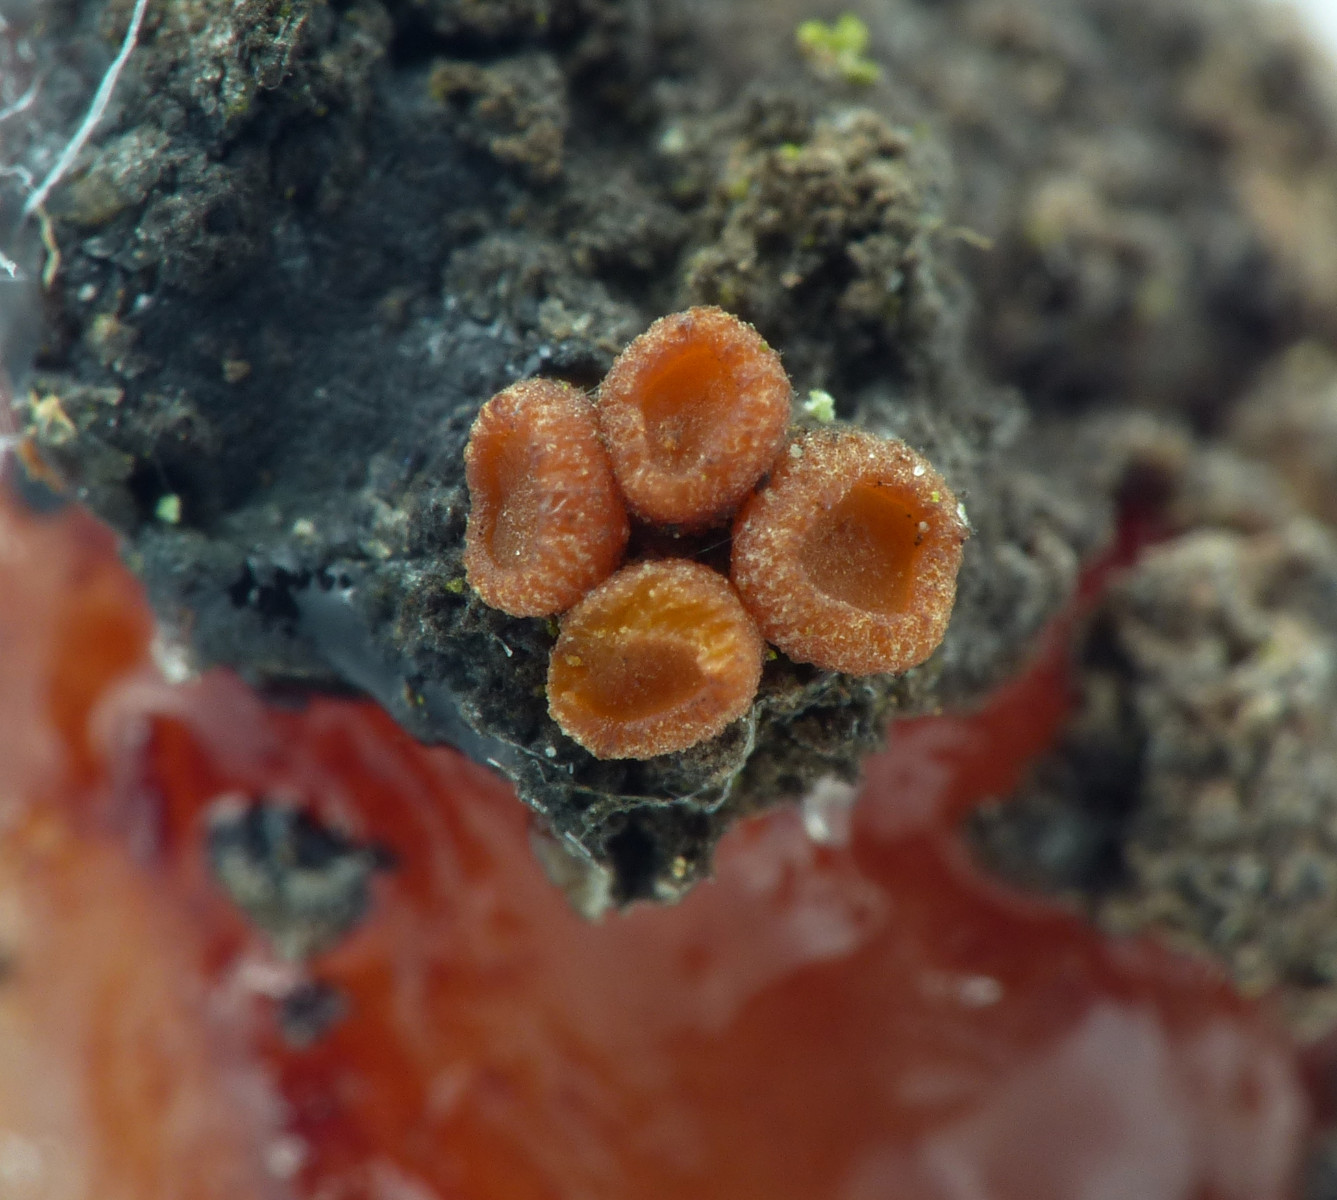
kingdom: Fungi
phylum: Ascomycota
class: Sareomycetes
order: Sareales
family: Sareaceae
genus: Sarea
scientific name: Sarea resinae
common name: orangegul harpiksskive
